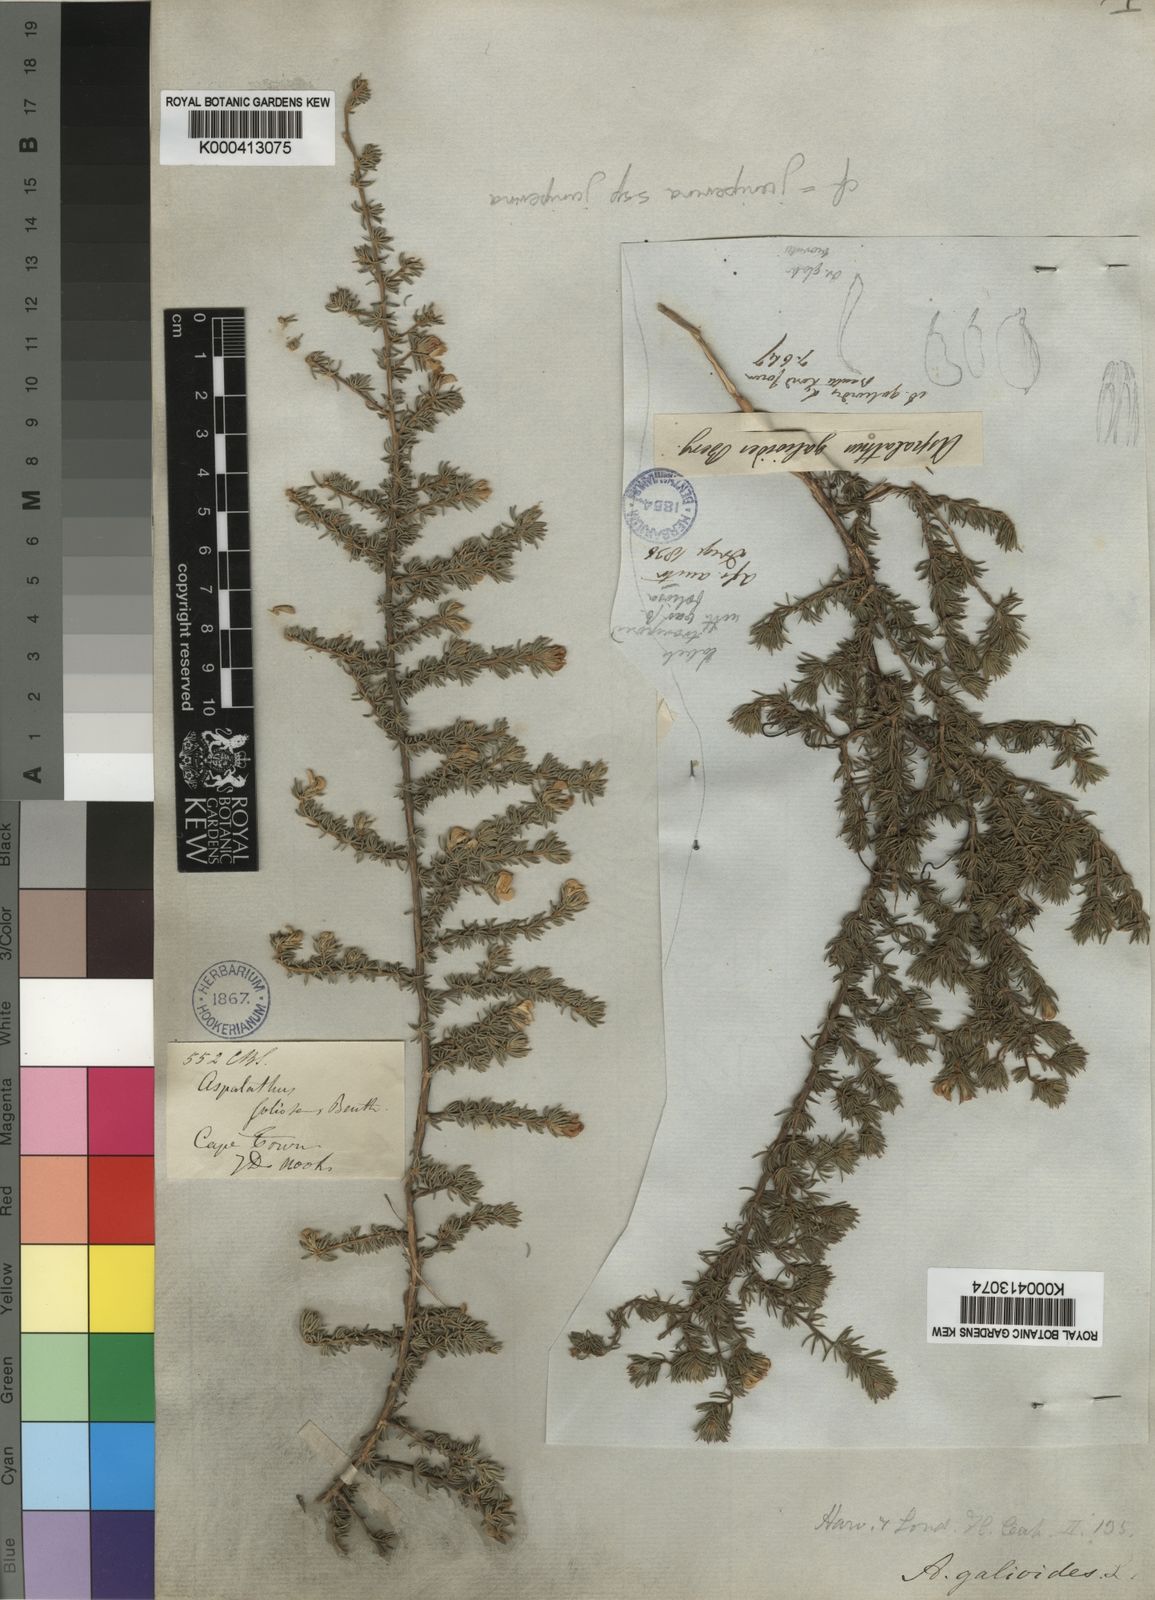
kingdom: Plantae
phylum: Tracheophyta
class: Magnoliopsida
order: Fabales
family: Fabaceae
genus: Aspalathus
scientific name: Aspalathus juniperina
